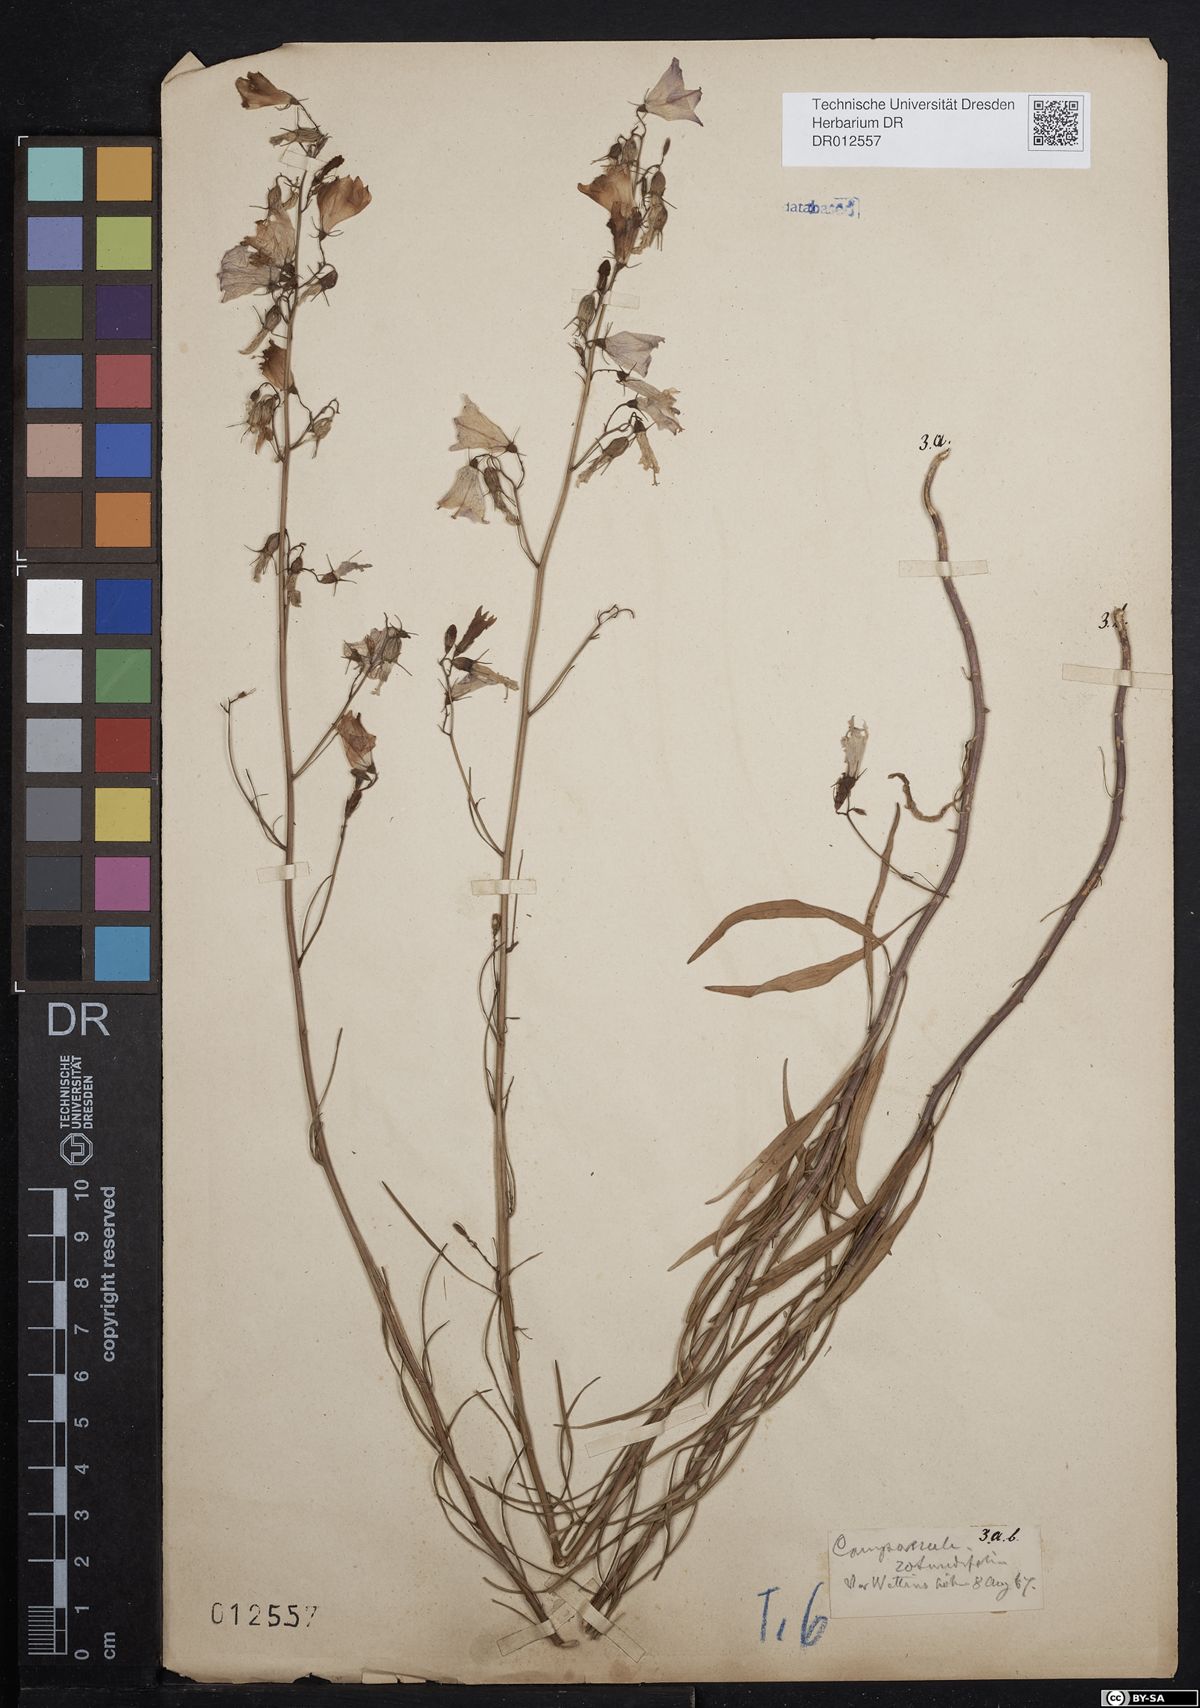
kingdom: Plantae
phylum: Tracheophyta
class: Magnoliopsida
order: Asterales
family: Campanulaceae
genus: Campanula
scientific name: Campanula rotundifolia
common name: Harebell
